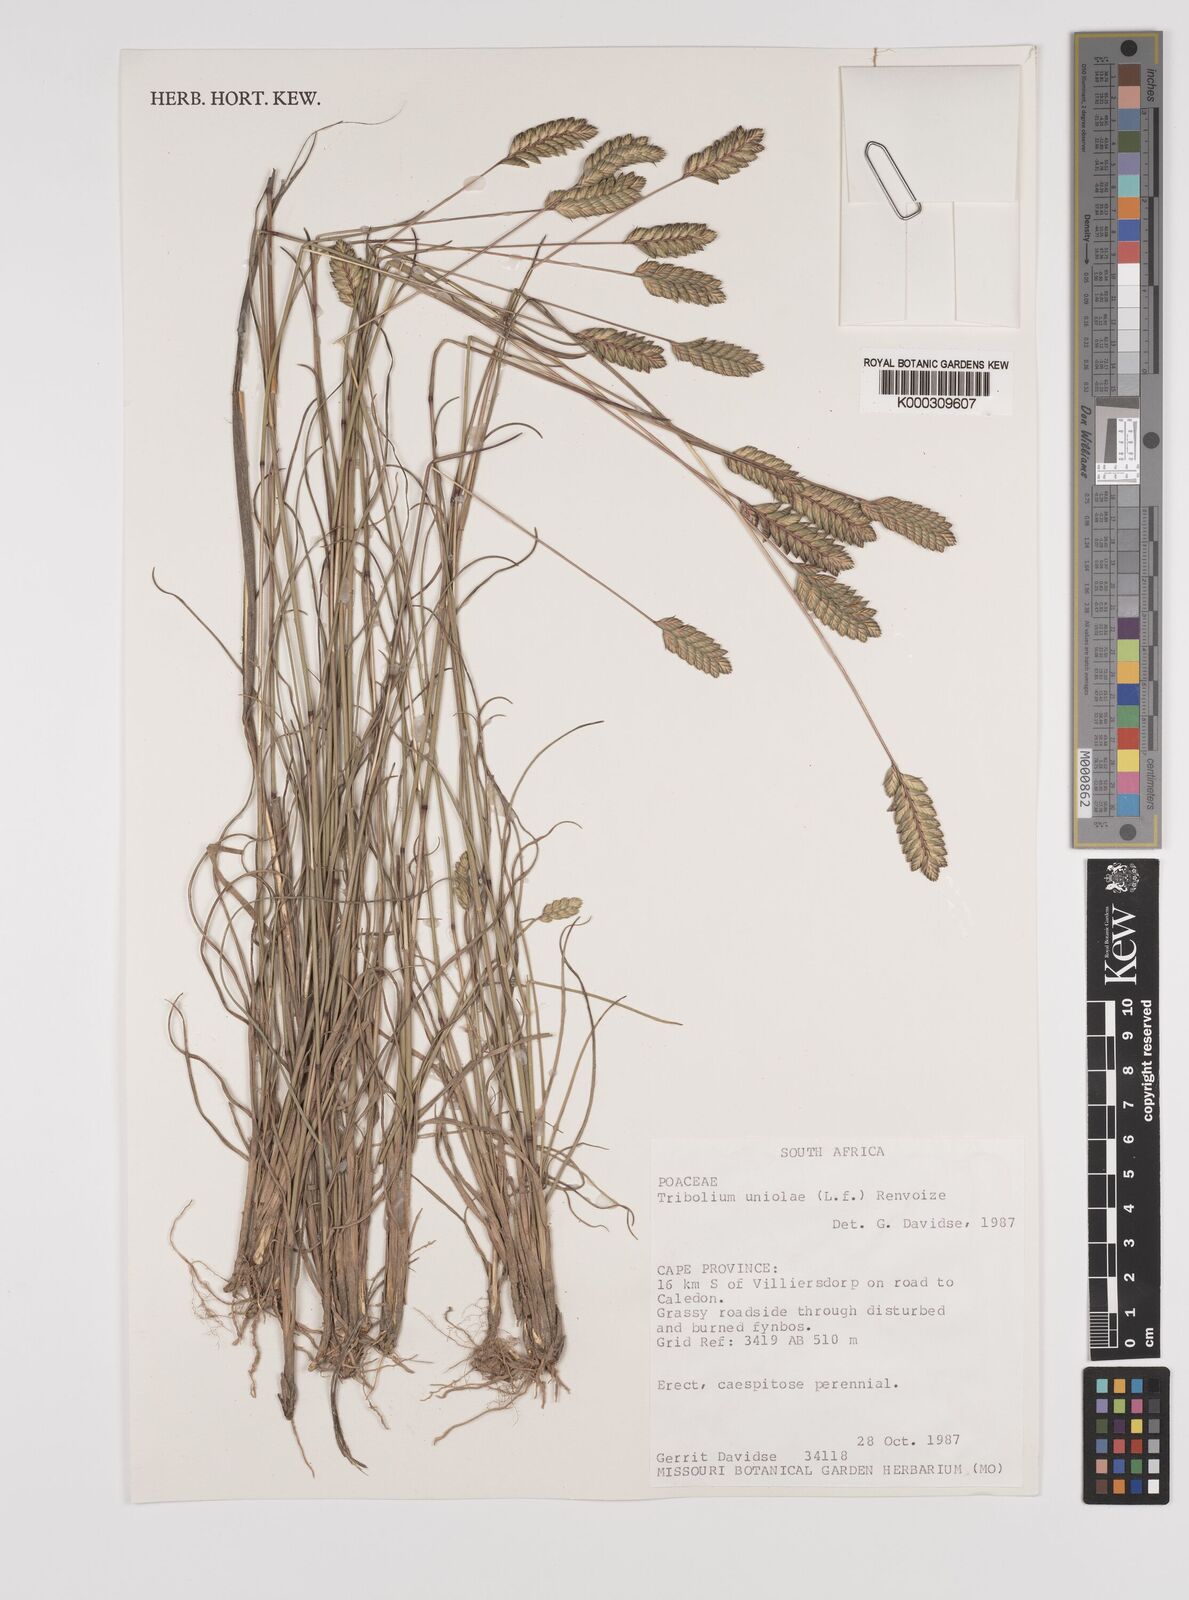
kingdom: Plantae
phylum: Tracheophyta
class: Liliopsida
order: Poales
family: Poaceae
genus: Tribolium
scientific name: Tribolium uniolae
